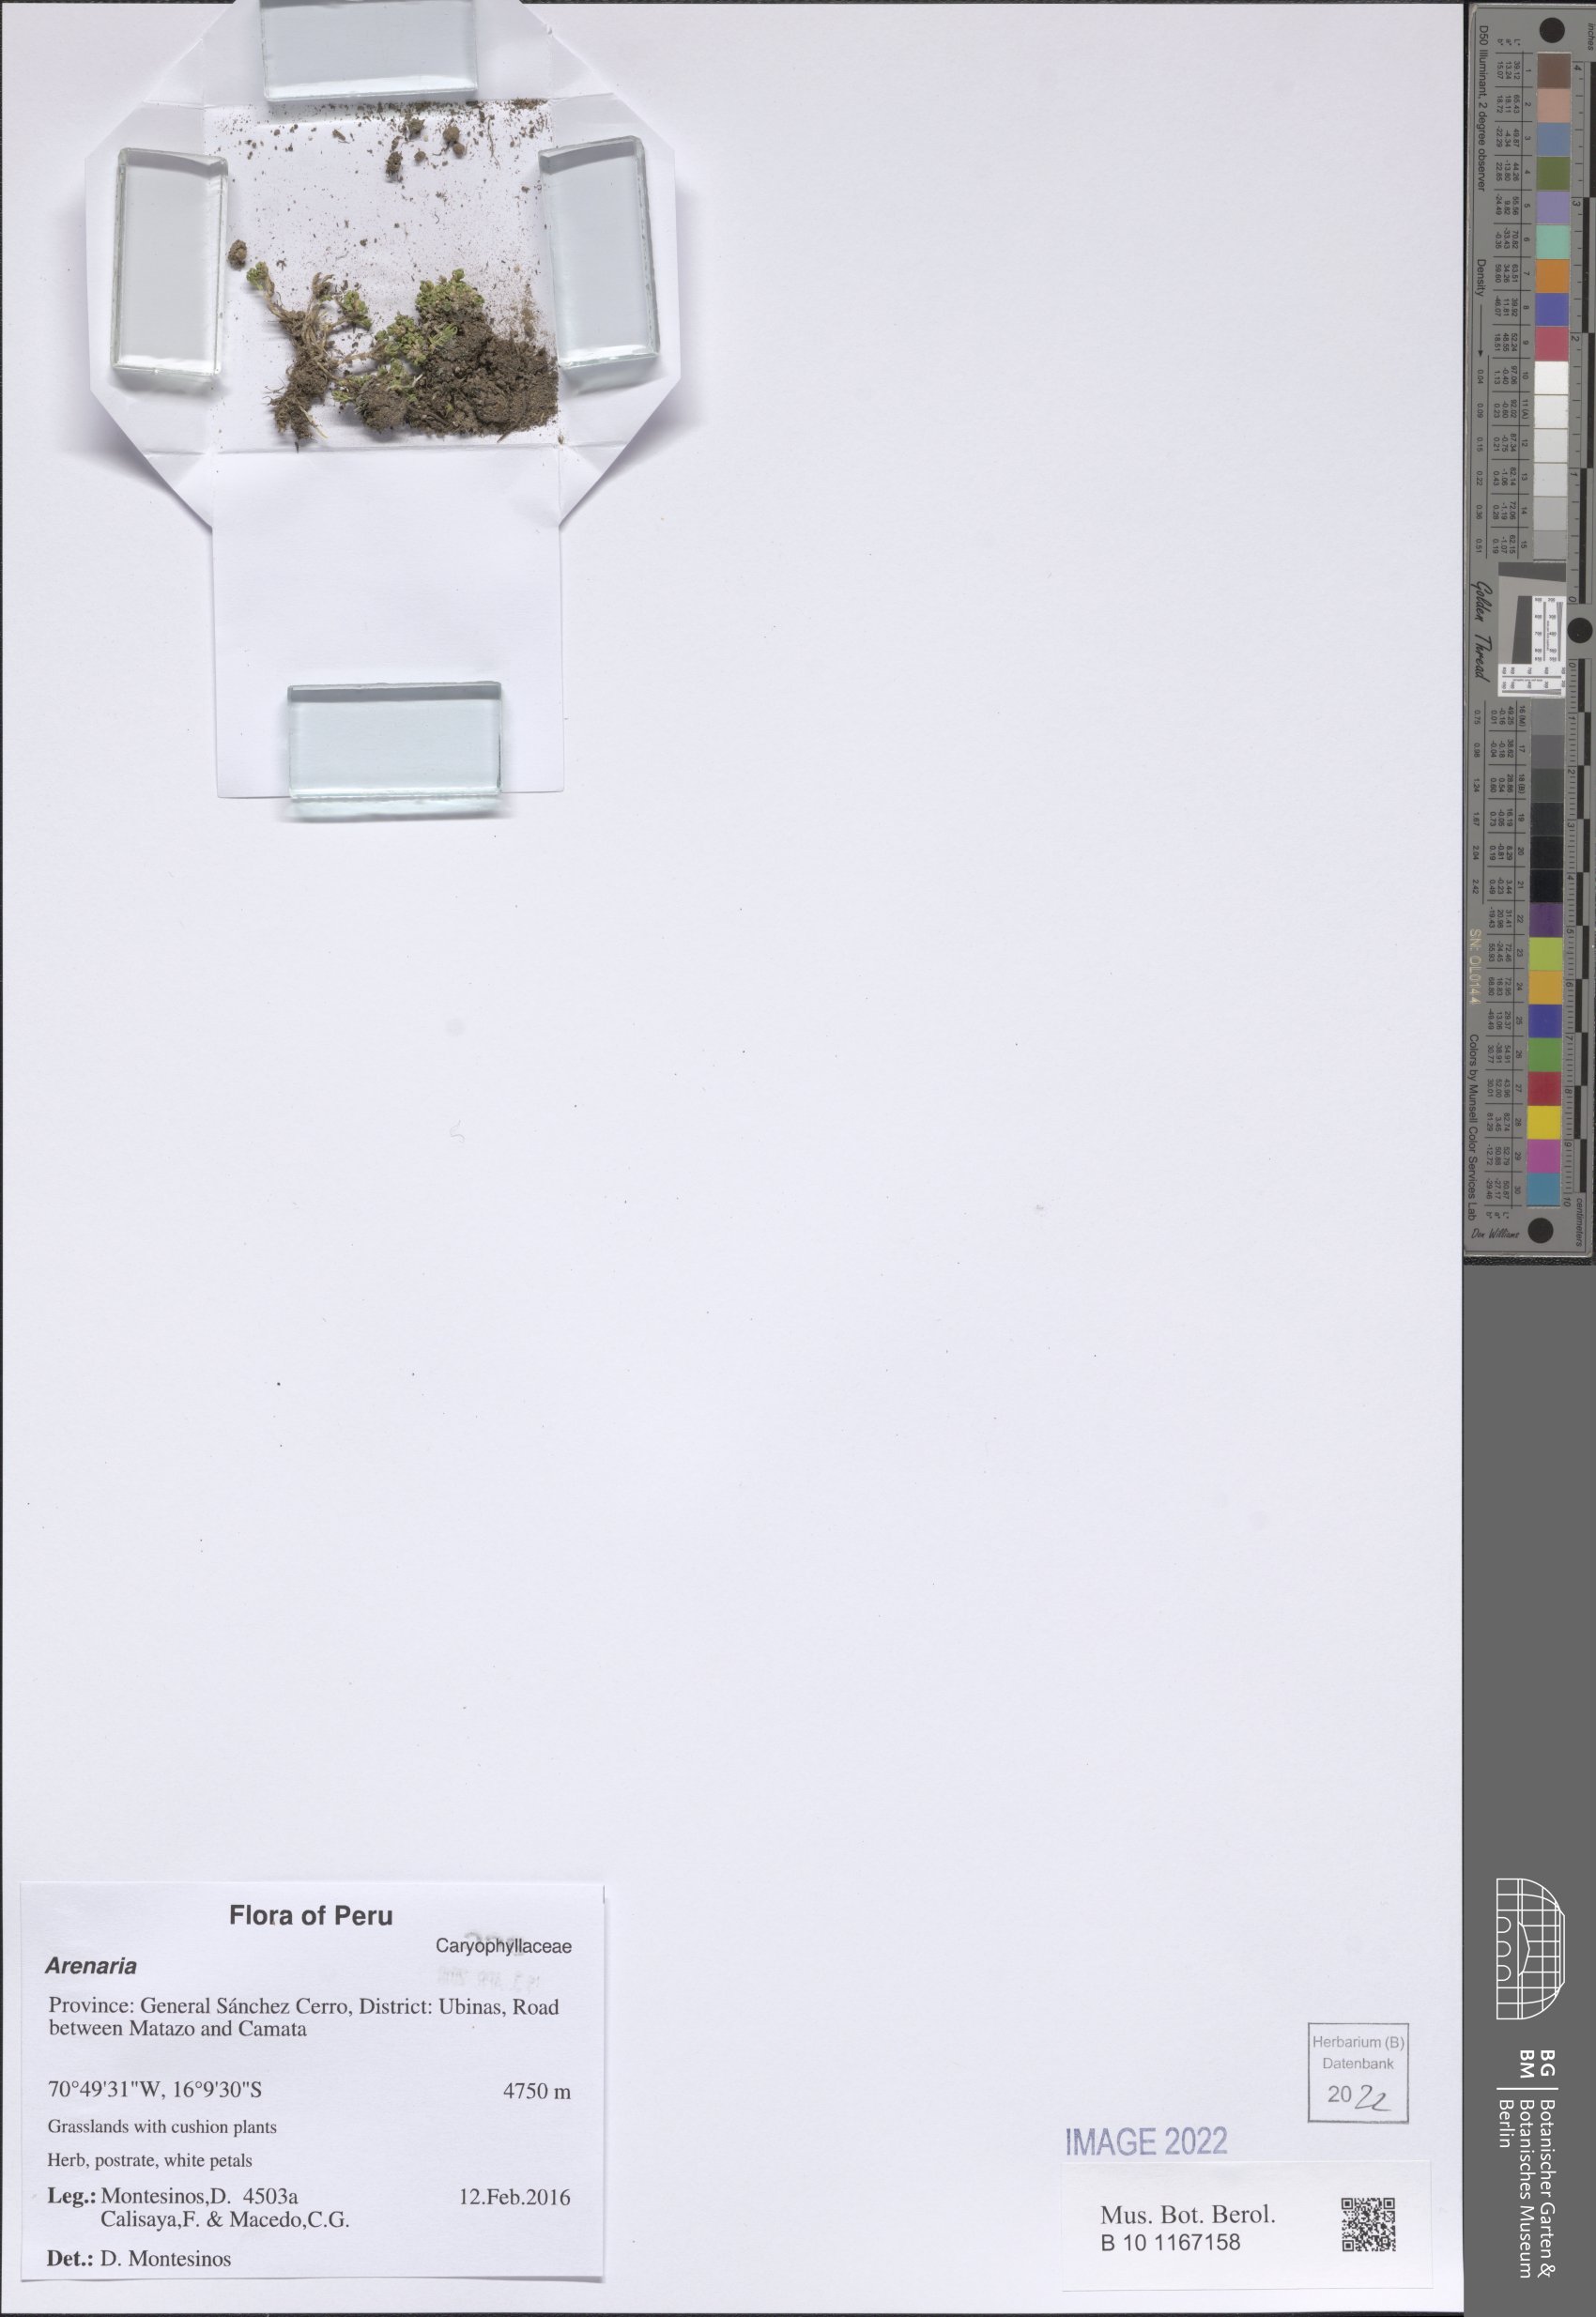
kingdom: Plantae
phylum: Tracheophyta
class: Magnoliopsida
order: Caryophyllales
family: Caryophyllaceae
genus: Arenaria
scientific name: Arenaria
